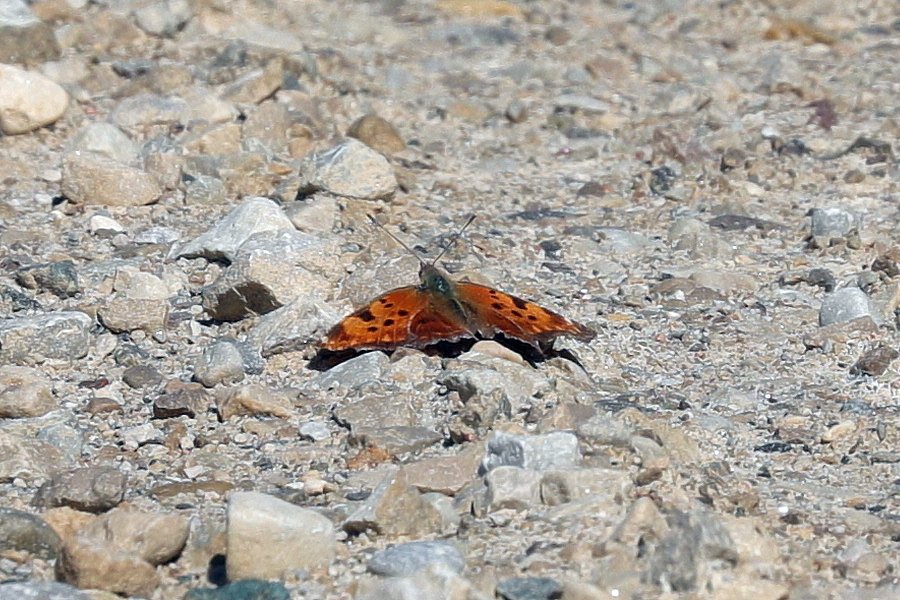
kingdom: Animalia
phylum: Arthropoda
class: Insecta
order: Lepidoptera
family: Nymphalidae
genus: Polygonia
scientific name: Polygonia comma
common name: Eastern Comma
